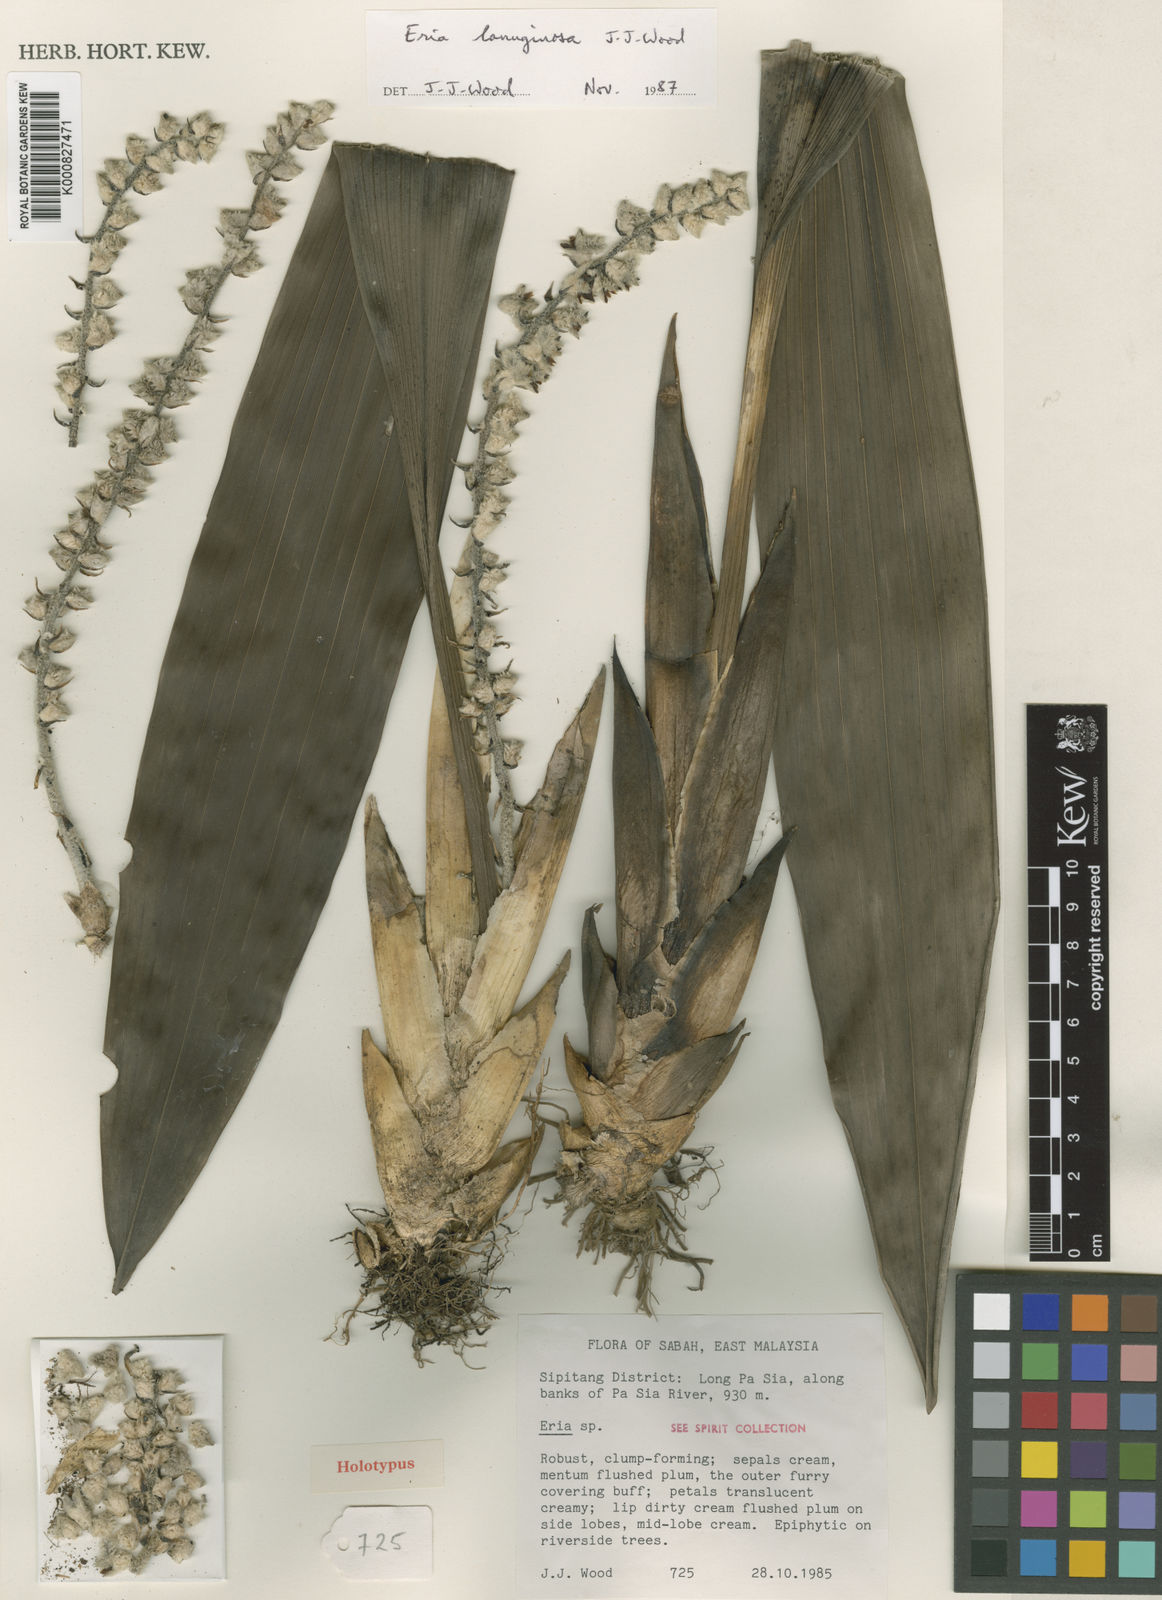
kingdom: Plantae
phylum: Tracheophyta
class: Liliopsida
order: Asparagales
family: Orchidaceae
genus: Bryobium
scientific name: Bryobium lanuginosum
